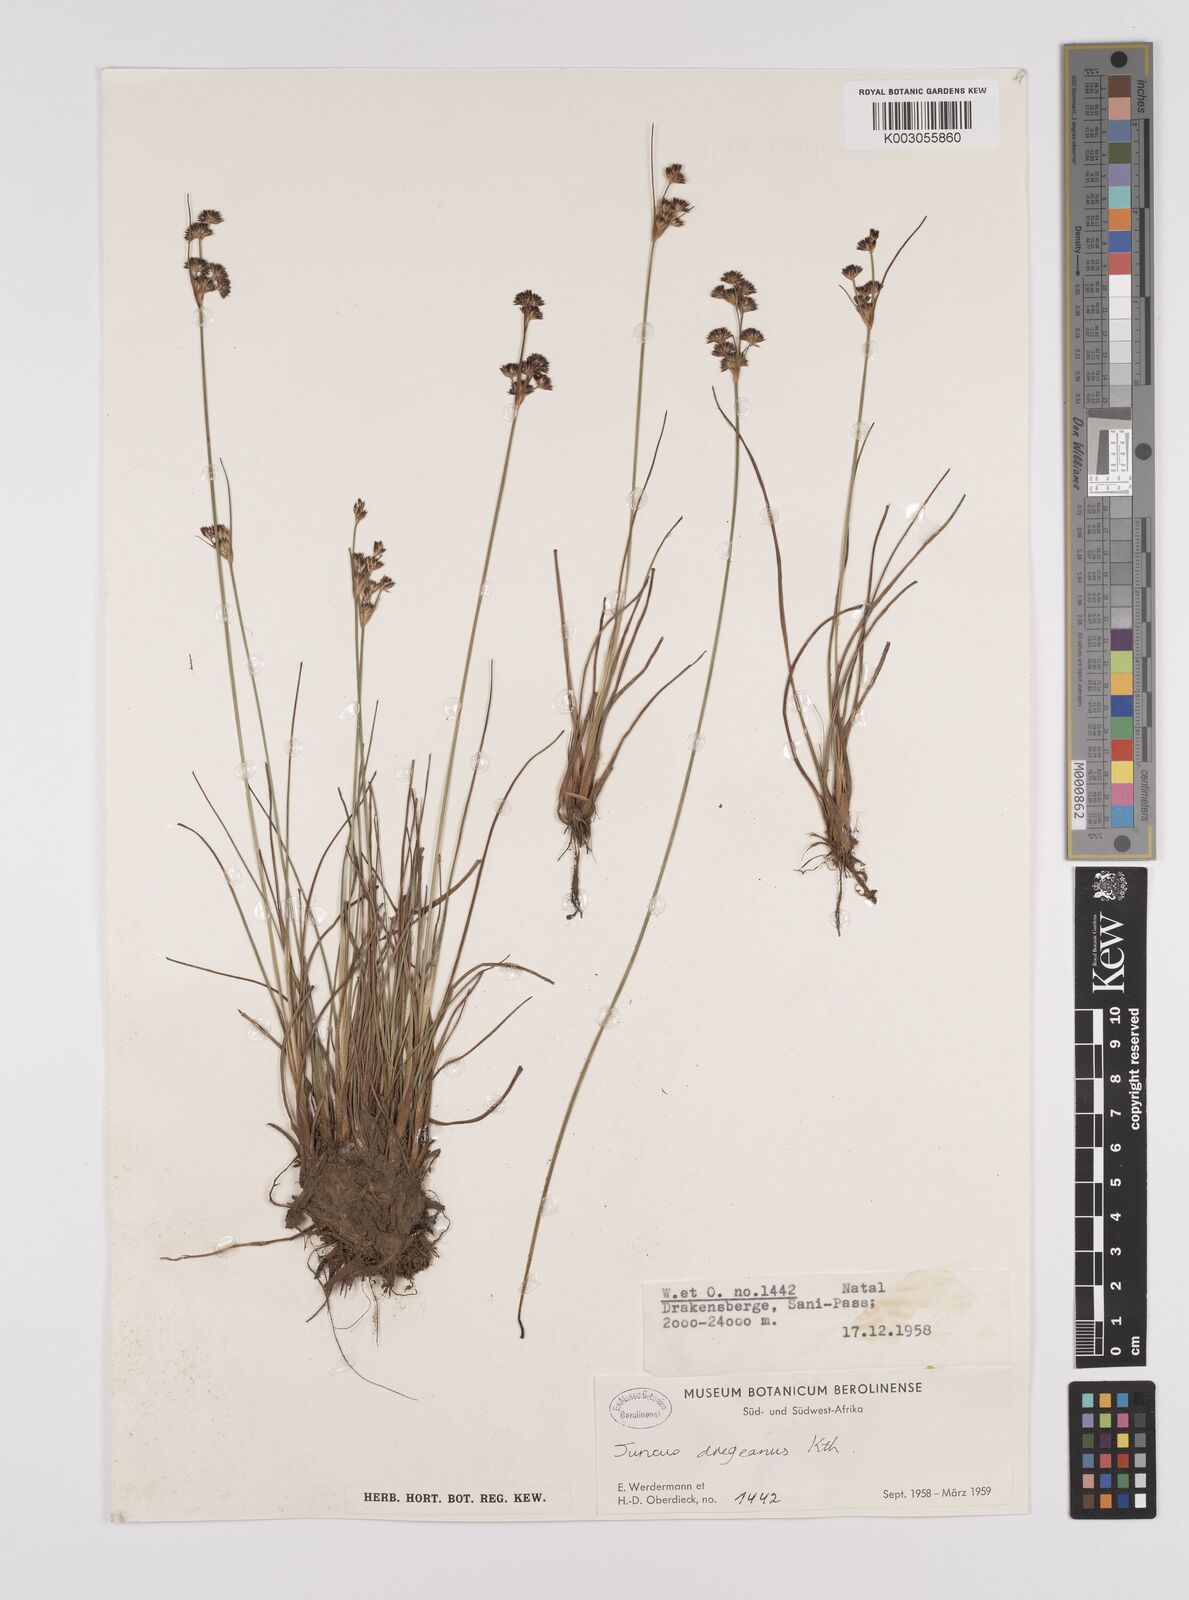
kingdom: Plantae
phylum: Tracheophyta
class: Liliopsida
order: Poales
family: Juncaceae
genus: Juncus
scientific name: Juncus dregeanus
